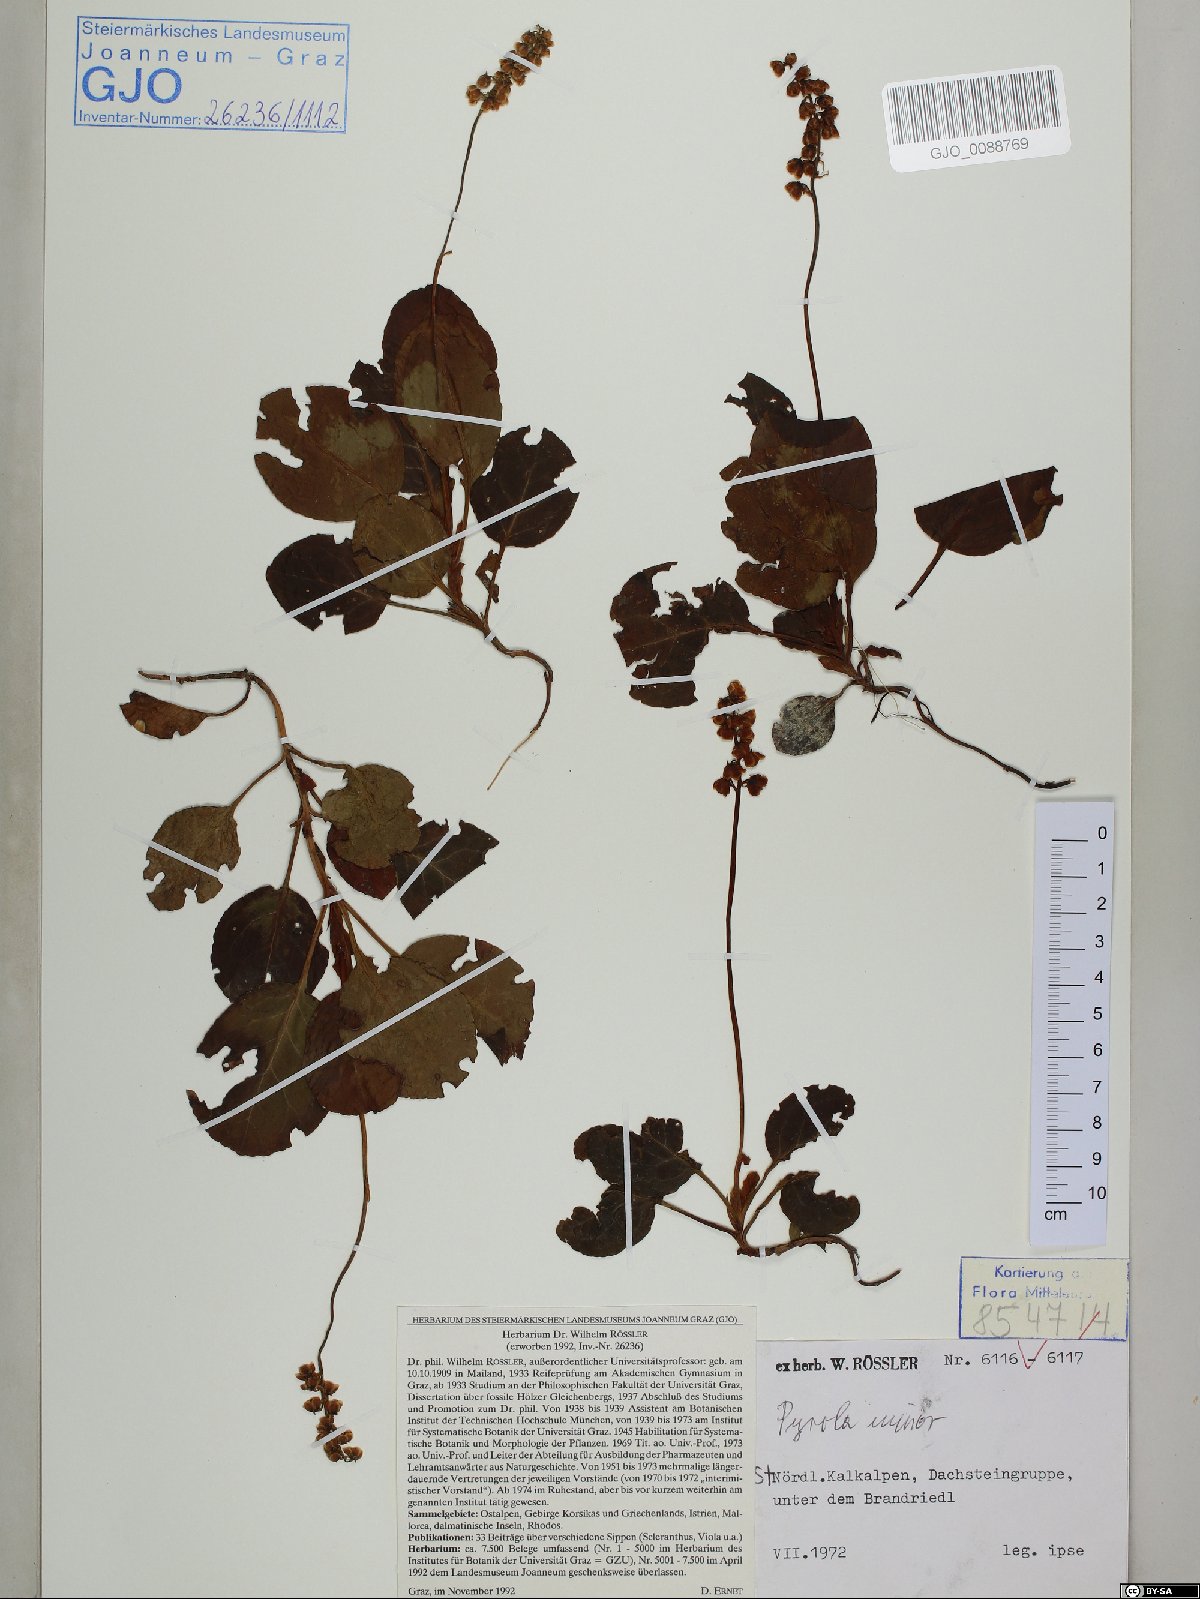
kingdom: Plantae
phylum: Tracheophyta
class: Magnoliopsida
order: Ericales
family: Ericaceae
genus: Pyrola
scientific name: Pyrola minor
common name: Common wintergreen
